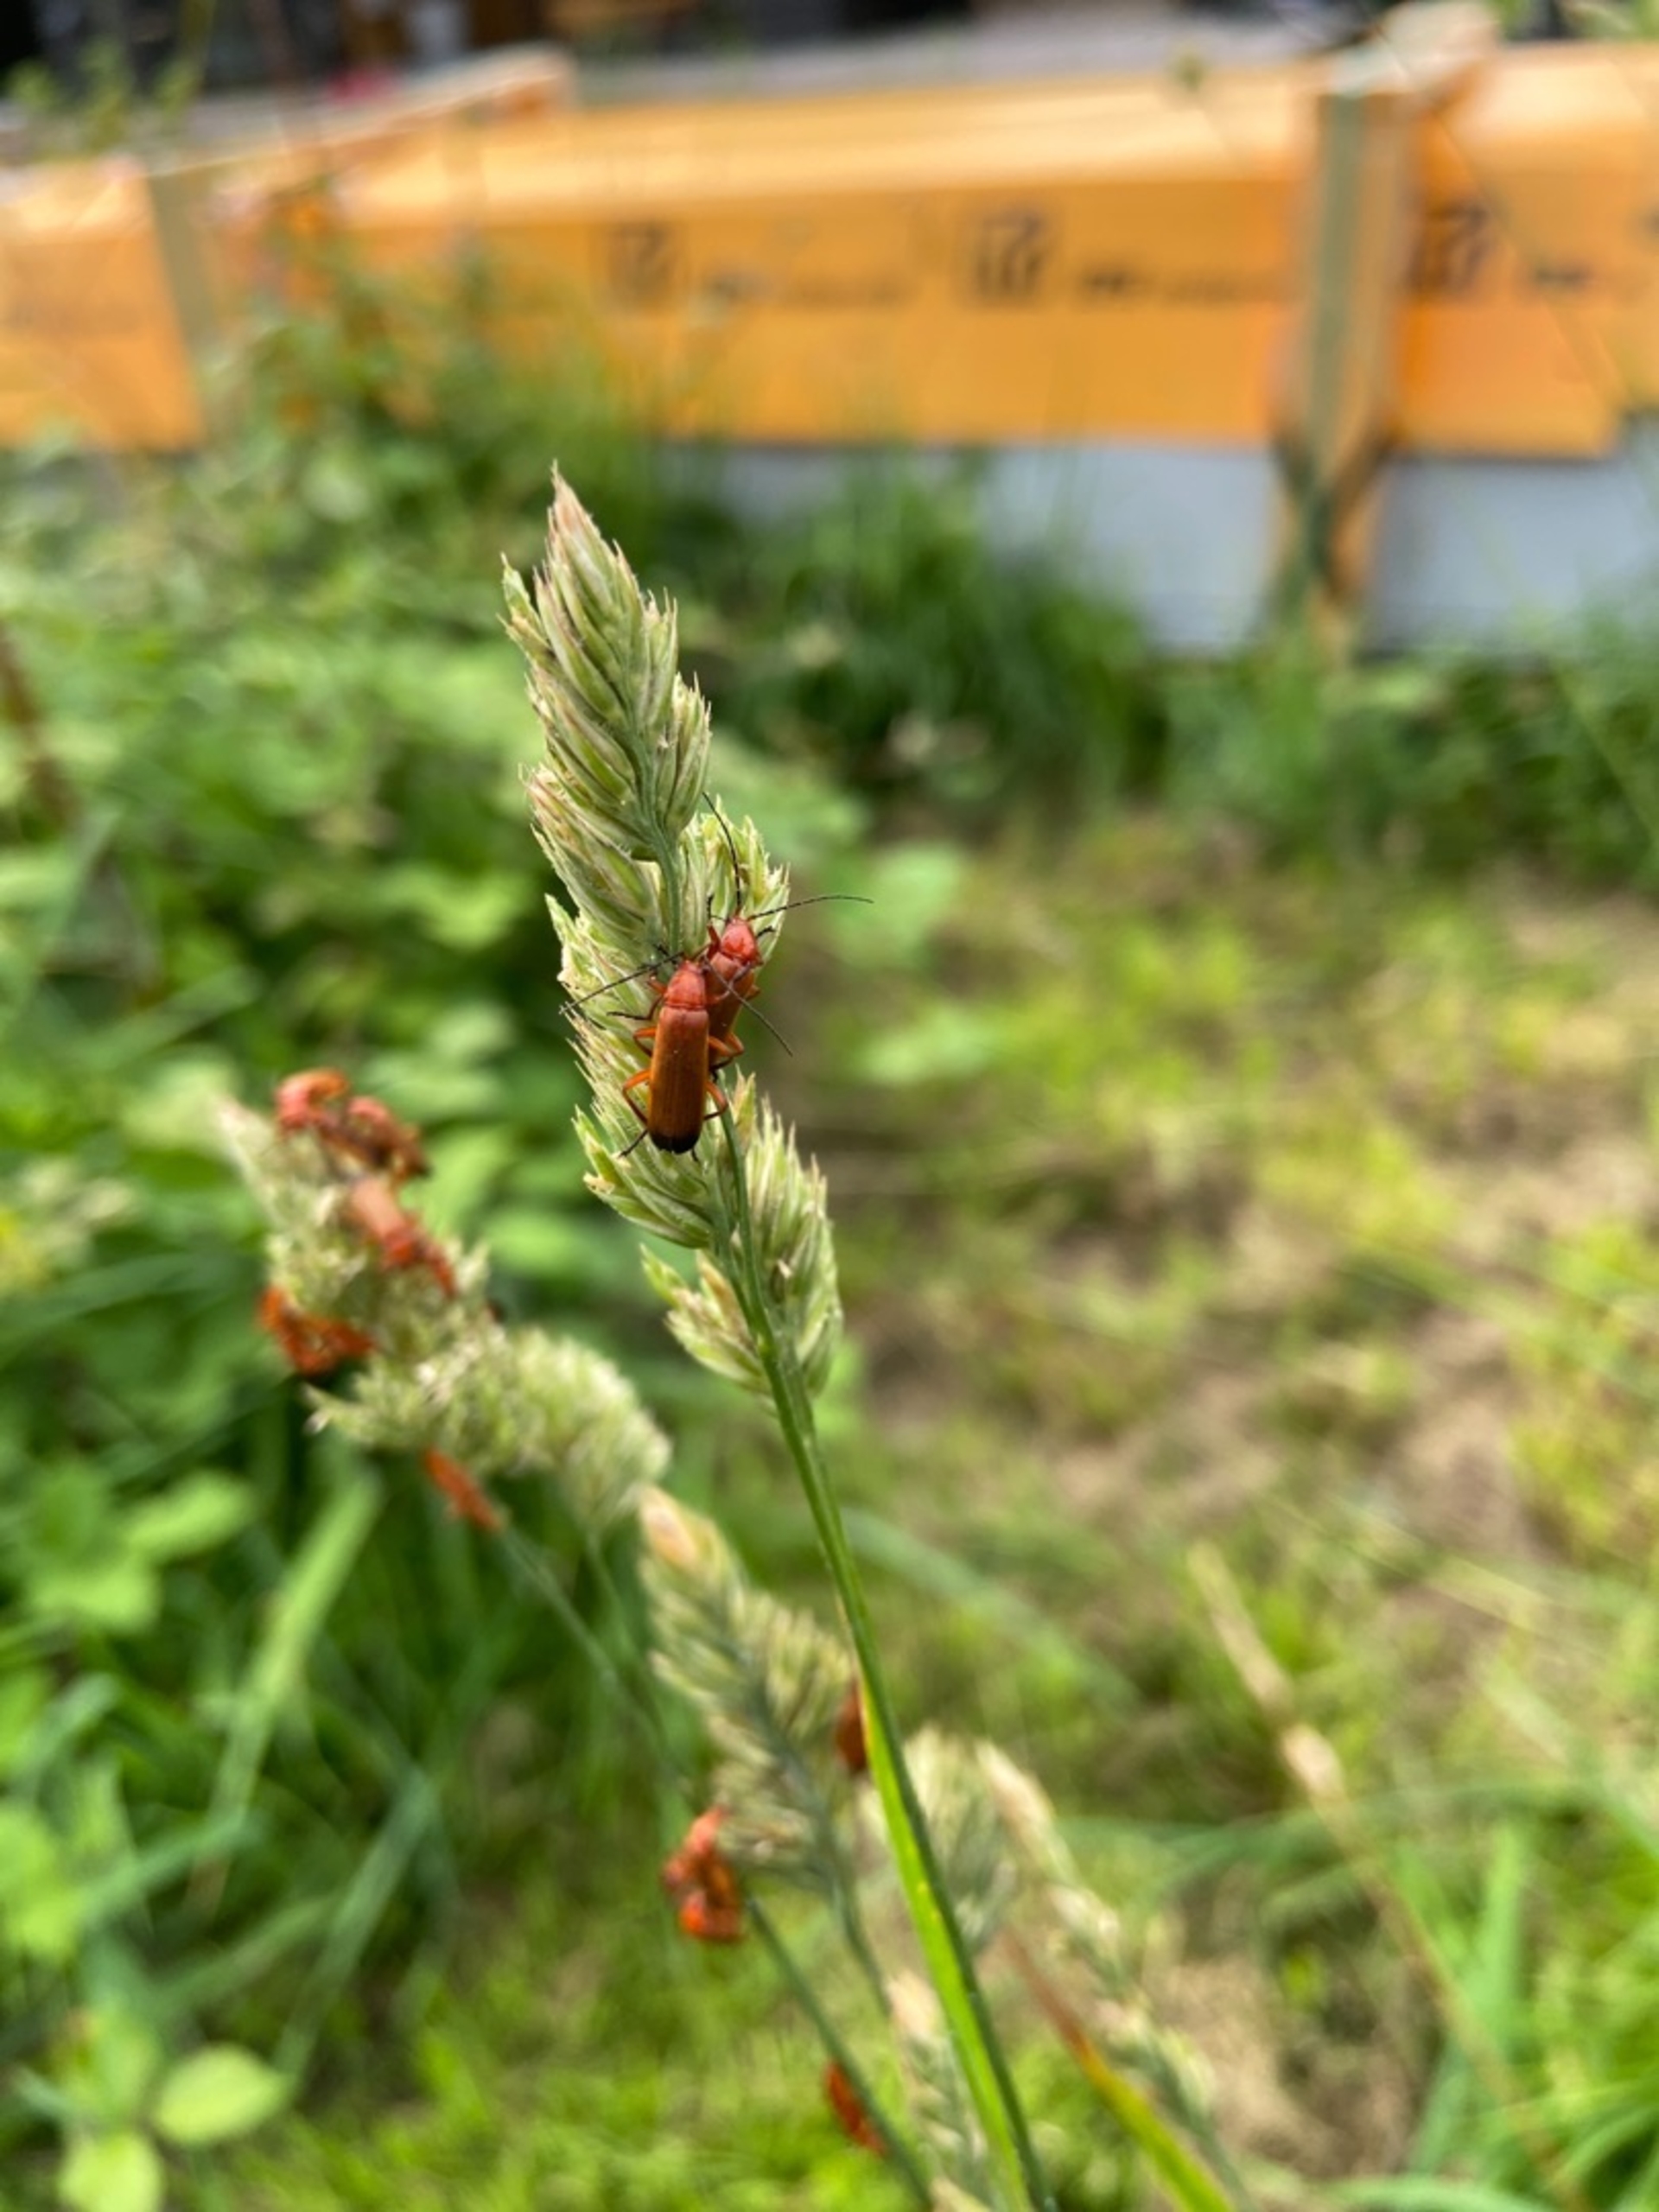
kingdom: Animalia
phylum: Arthropoda
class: Insecta
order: Coleoptera
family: Cantharidae
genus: Rhagonycha
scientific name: Rhagonycha fulva
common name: Præstebille
